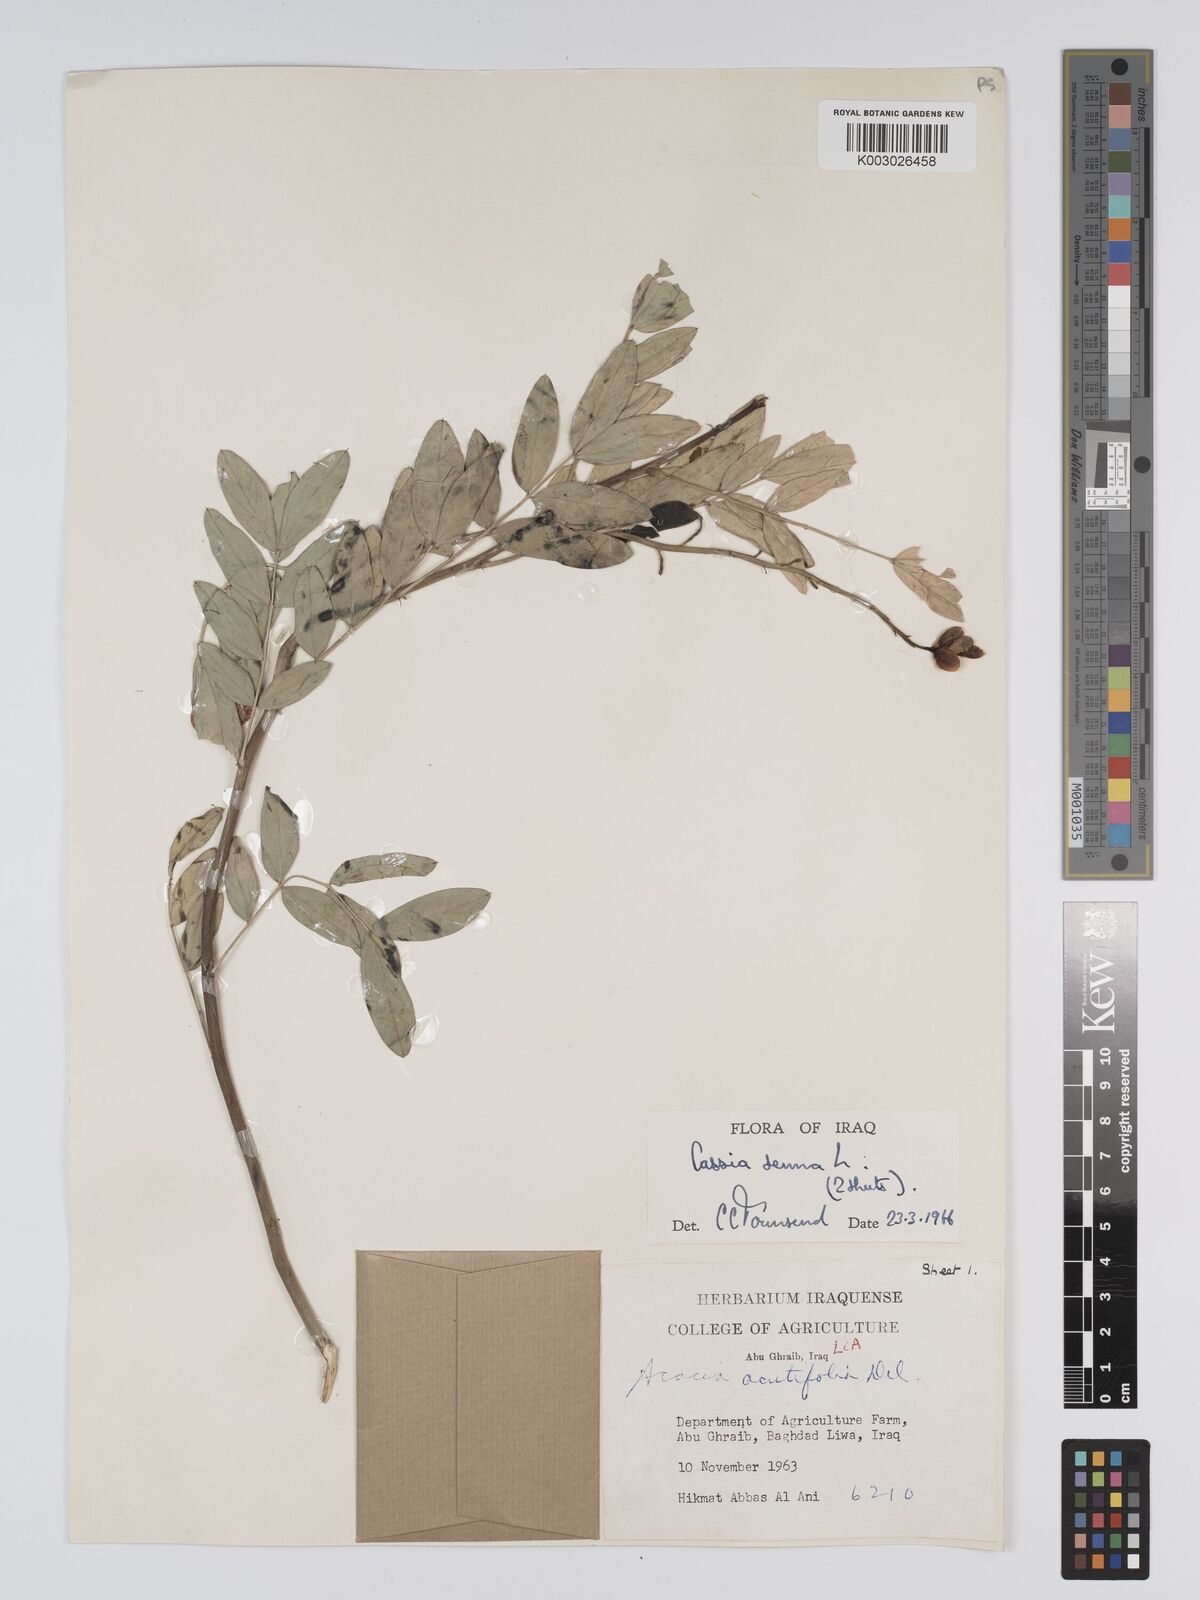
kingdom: Plantae
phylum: Tracheophyta
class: Magnoliopsida
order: Fabales
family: Fabaceae
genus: Senna
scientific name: Senna alexandrina
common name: True senna
